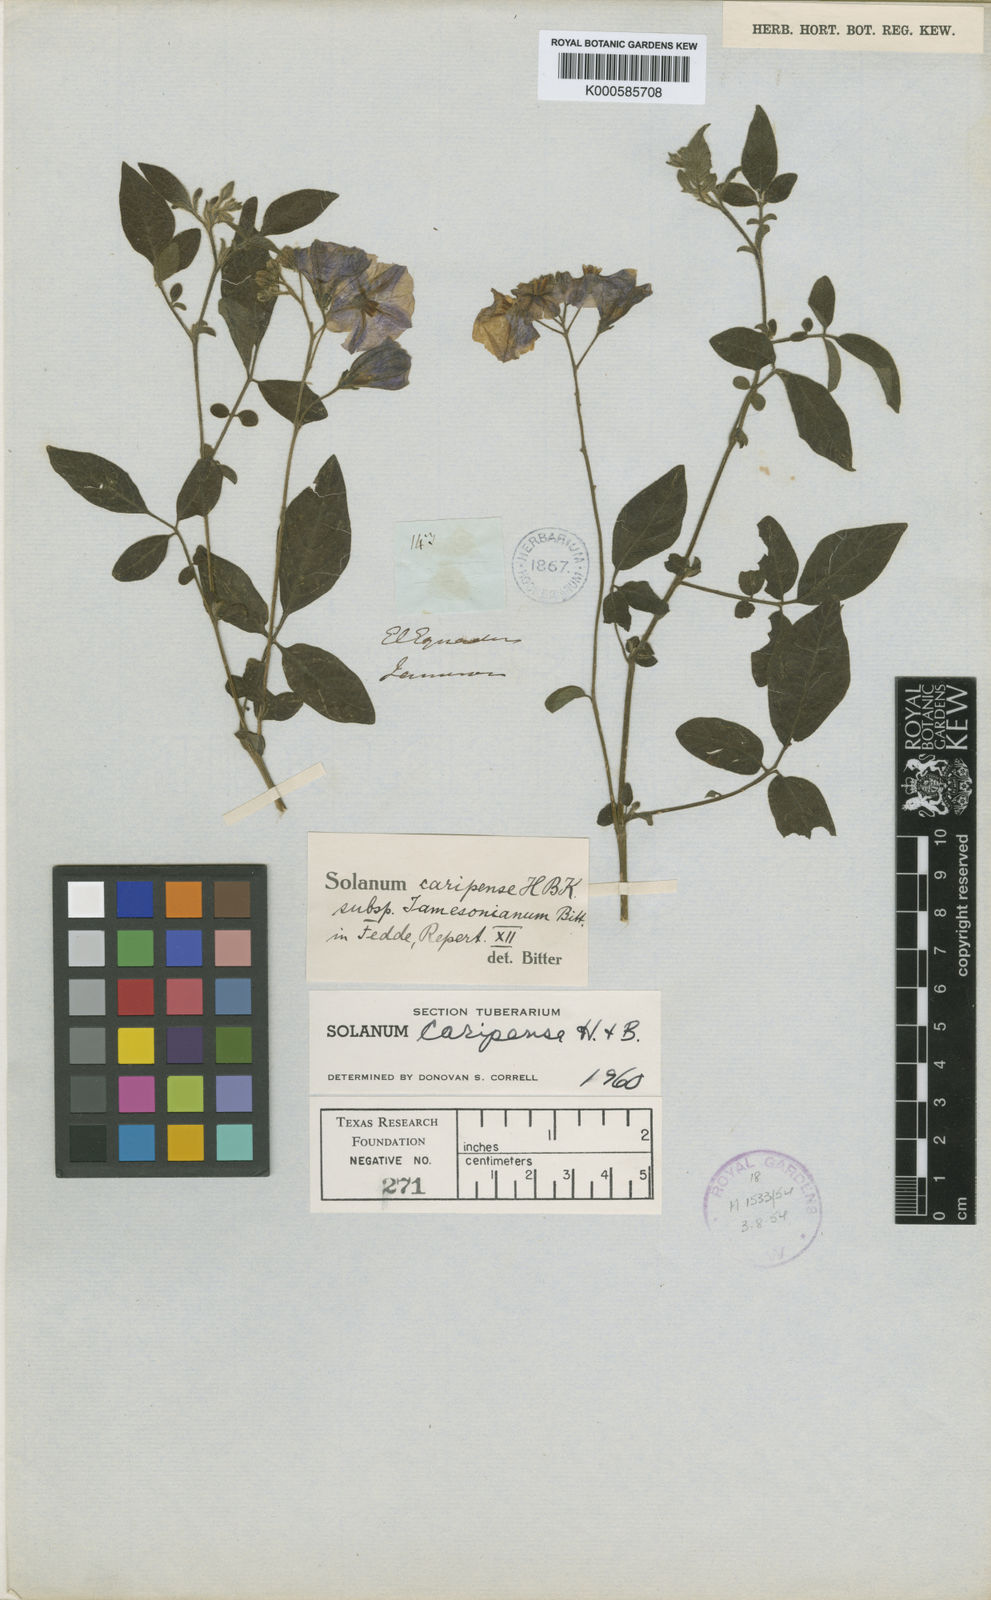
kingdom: Plantae
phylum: Tracheophyta
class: Magnoliopsida
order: Solanales
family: Solanaceae
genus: Solanum
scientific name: Solanum caripense
